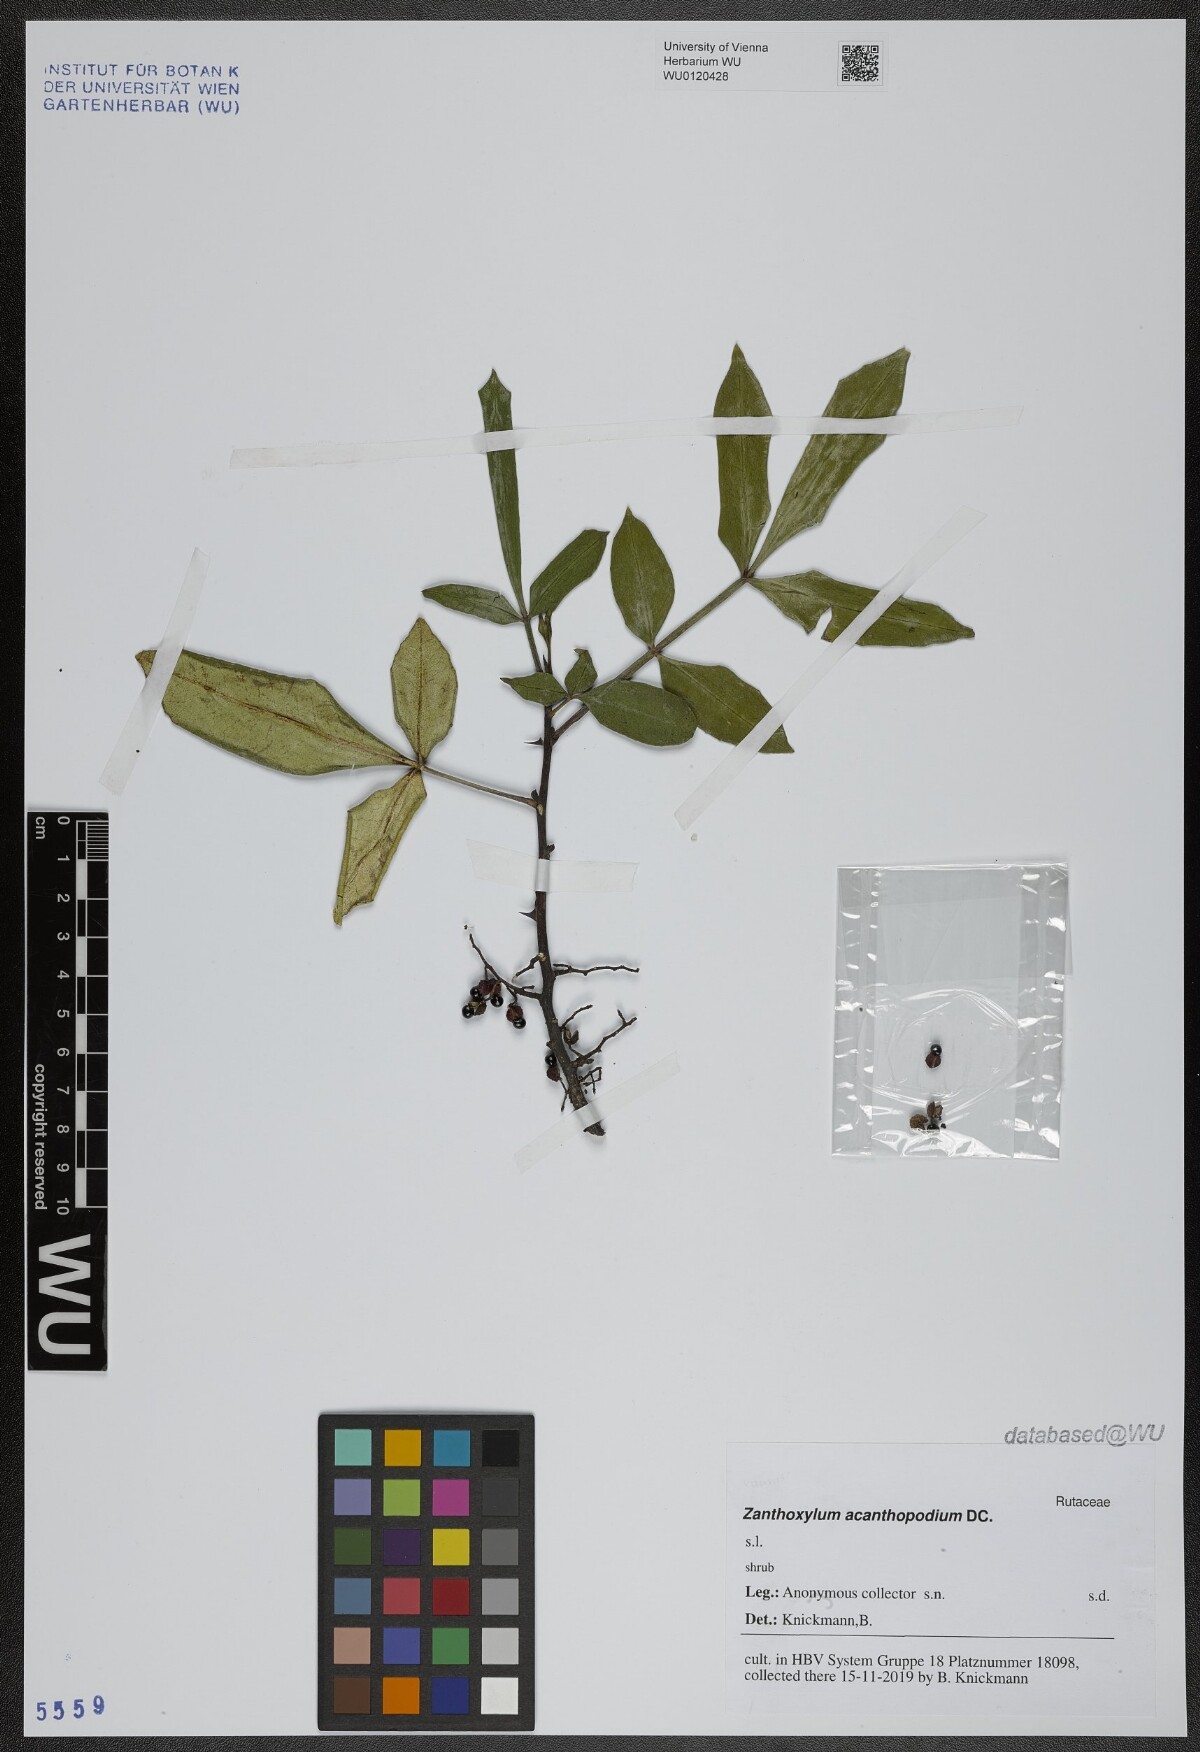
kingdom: Plantae
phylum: Tracheophyta
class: Magnoliopsida
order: Sapindales
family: Rutaceae
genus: Zanthoxylum
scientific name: Zanthoxylum acanthopodium
